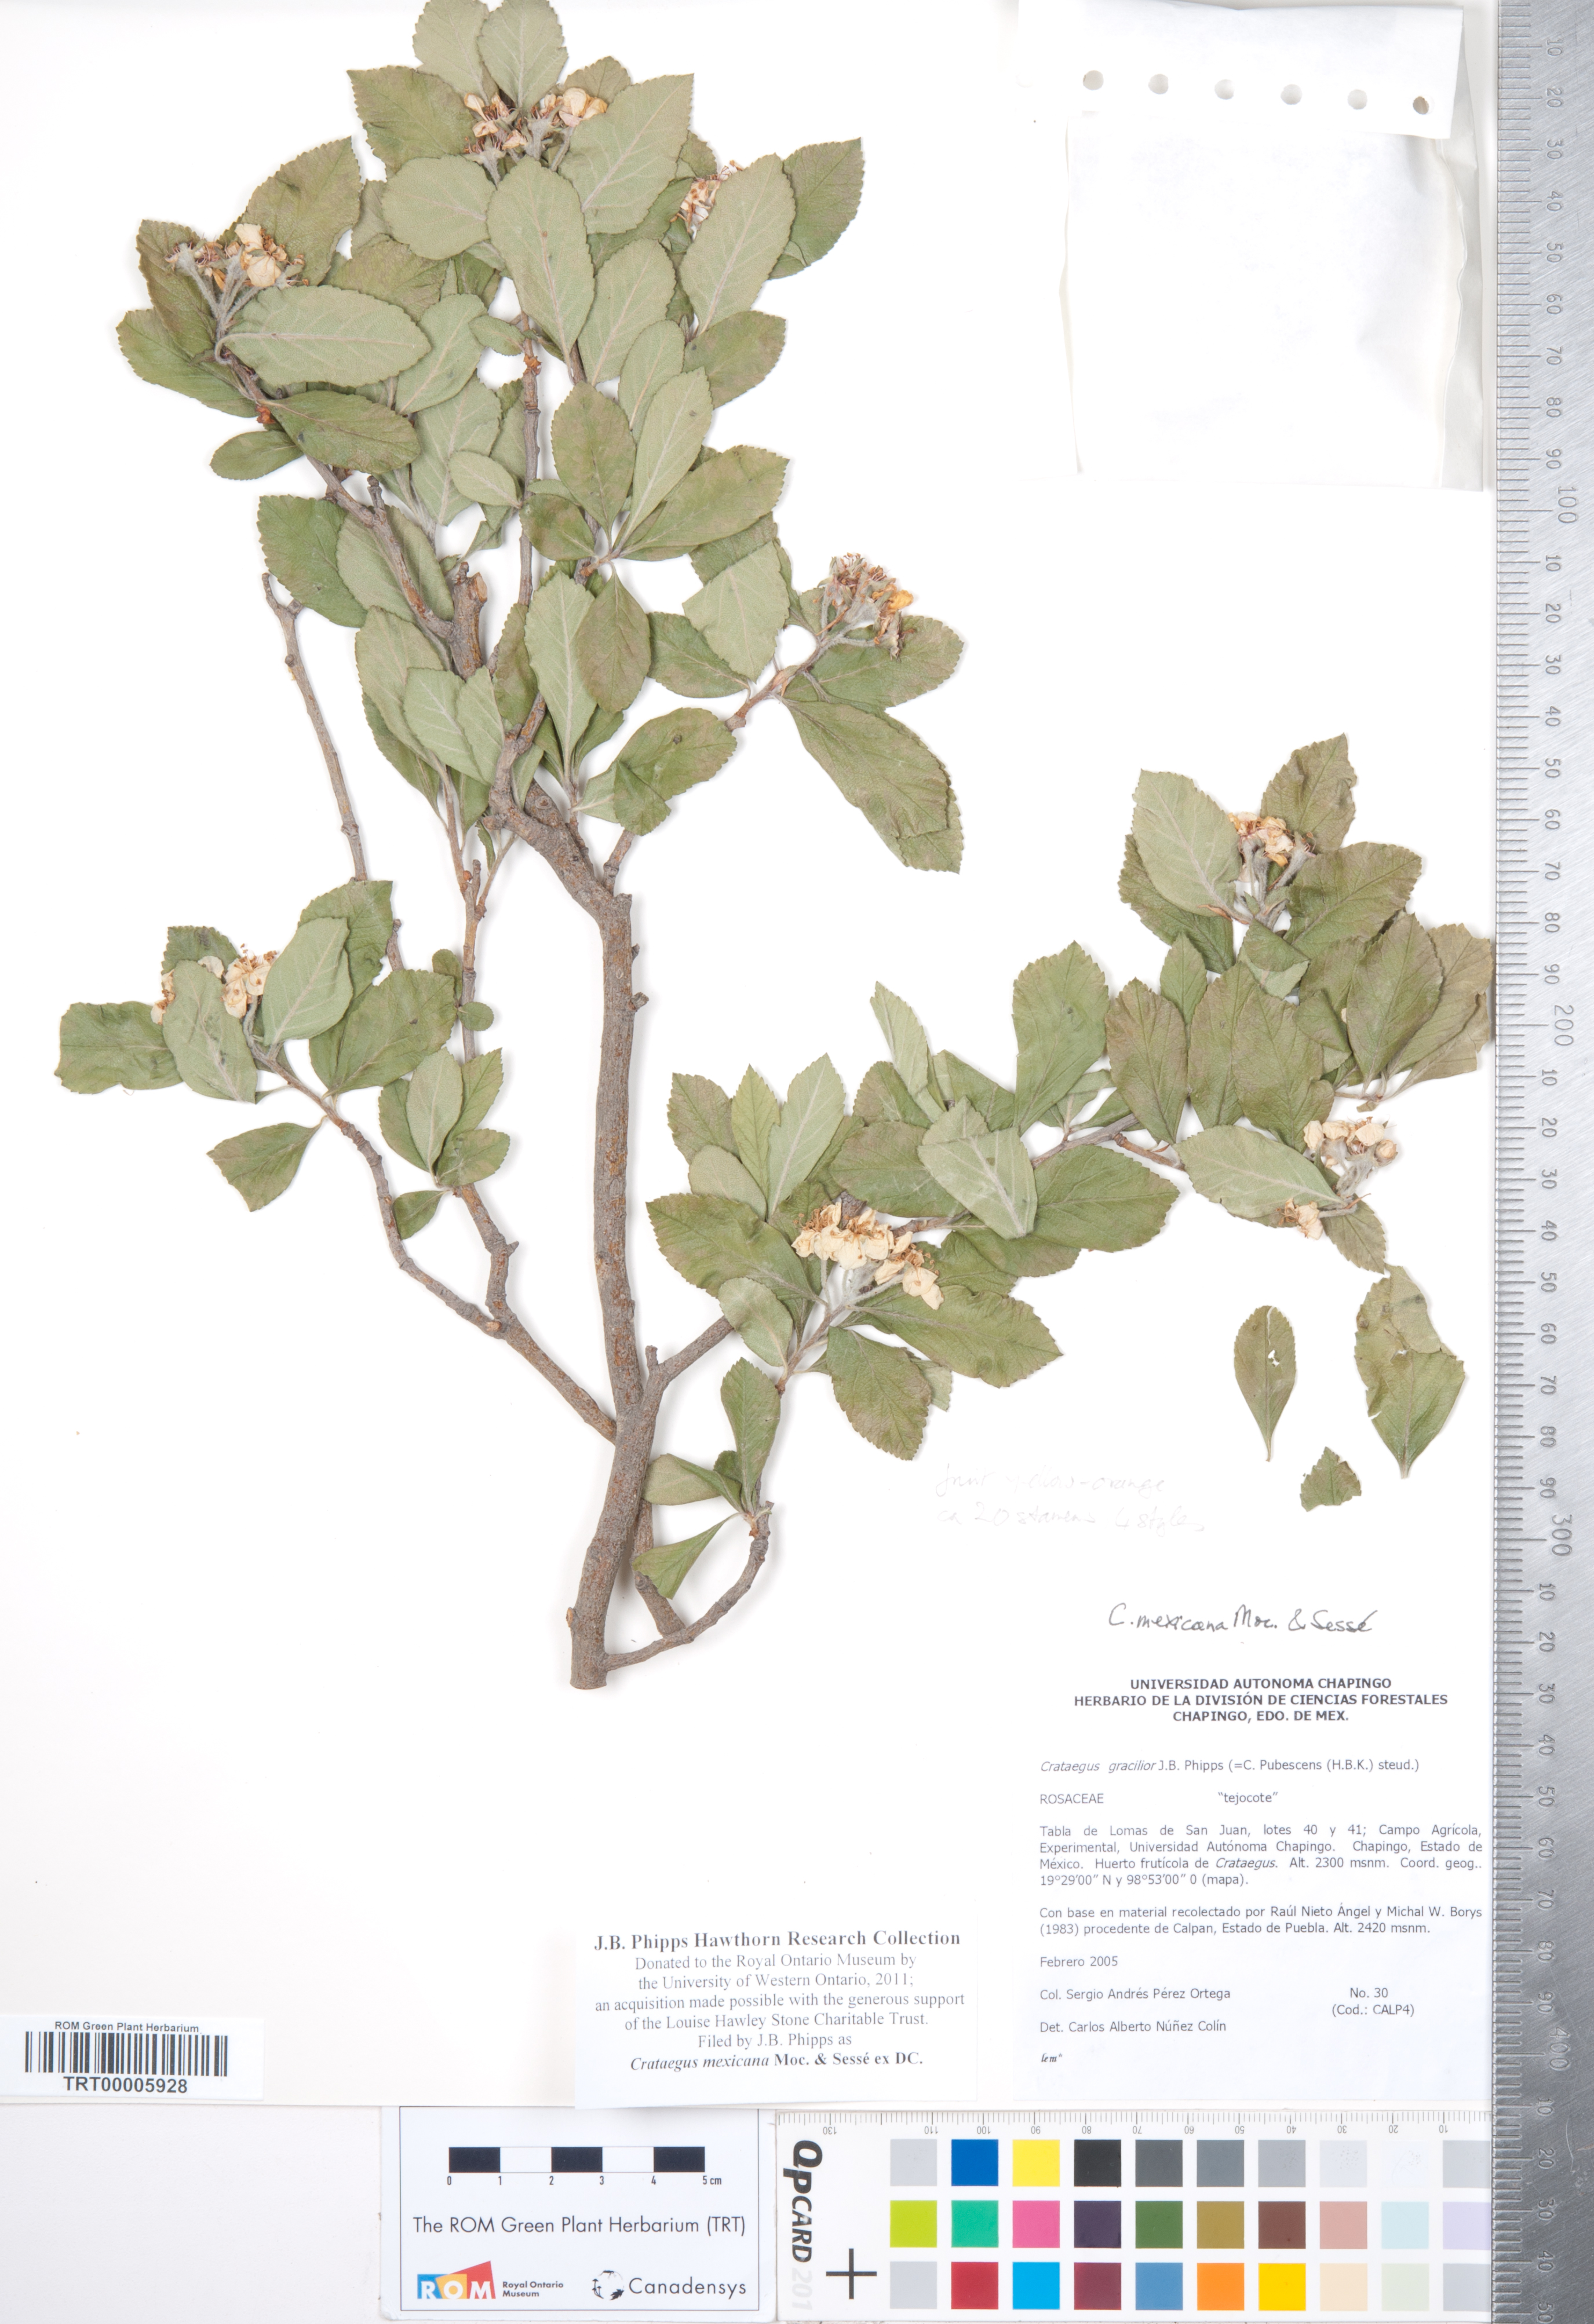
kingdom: Plantae
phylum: Tracheophyta
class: Magnoliopsida
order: Rosales
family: Rosaceae
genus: Crataegus
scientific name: Crataegus mexicana
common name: Mexican hawthorn
